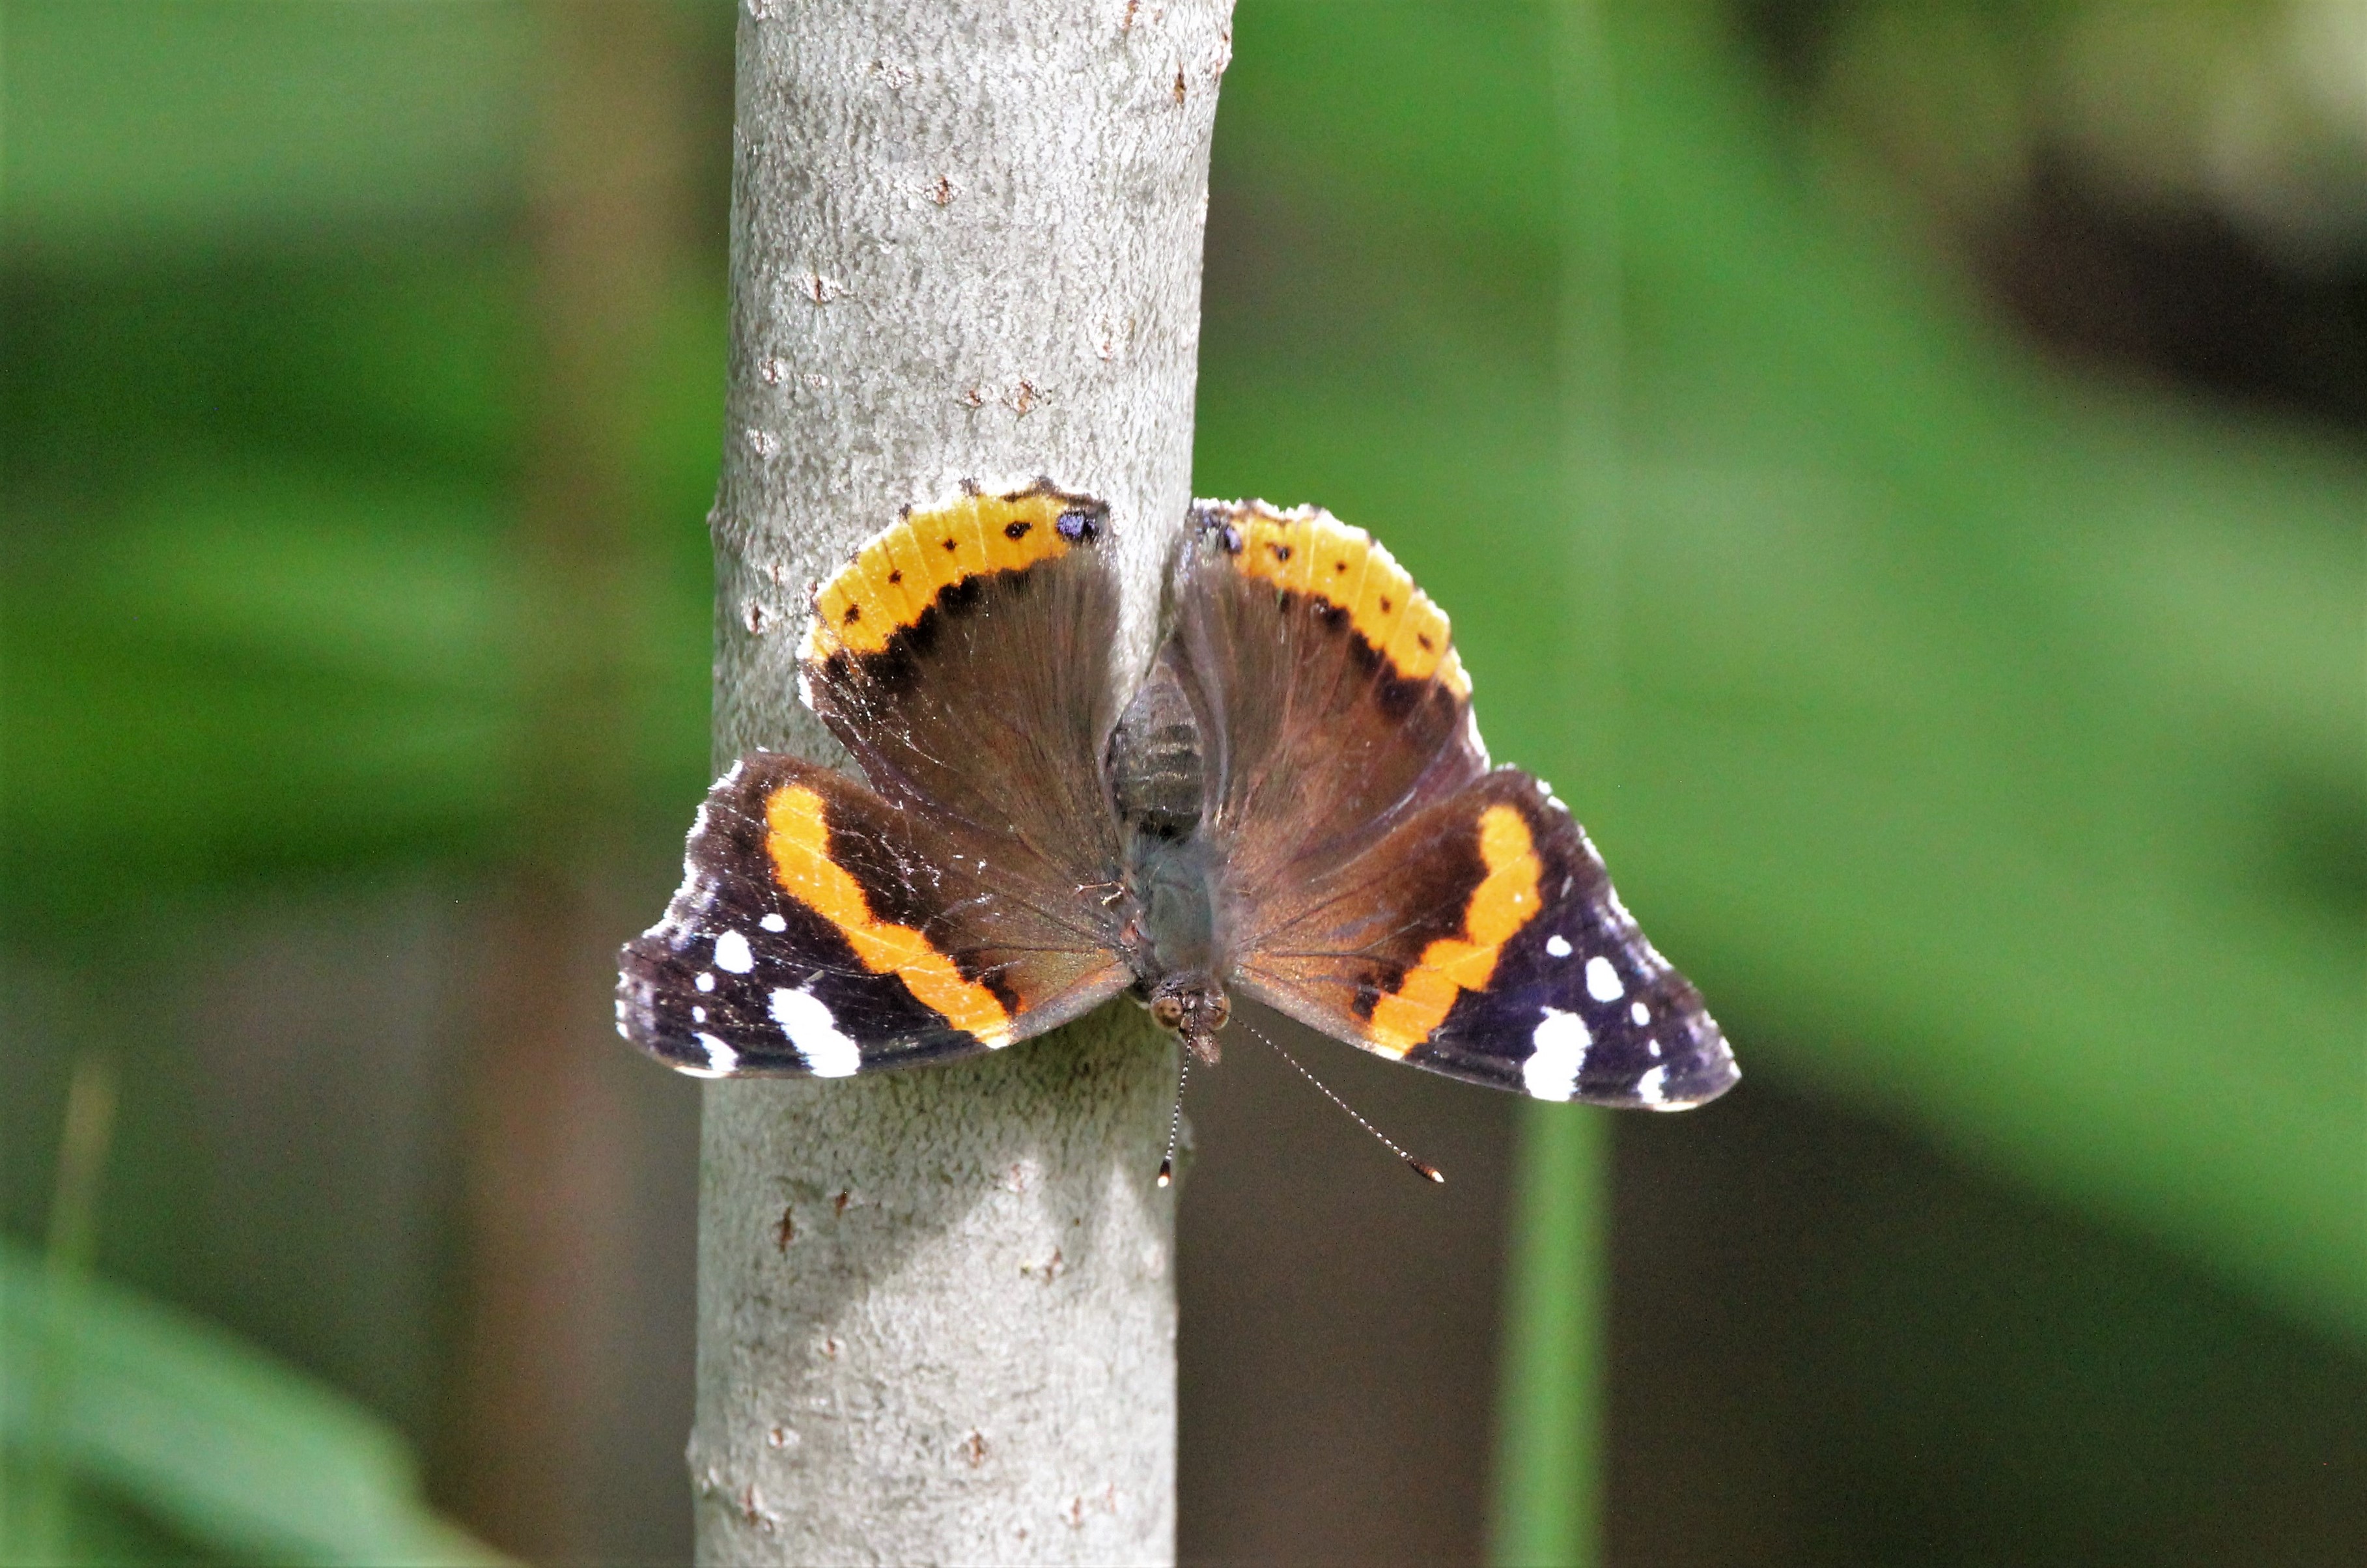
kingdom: Animalia
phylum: Arthropoda
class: Insecta
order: Lepidoptera
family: Nymphalidae
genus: Vanessa
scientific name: Vanessa atalanta
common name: Red admiral
